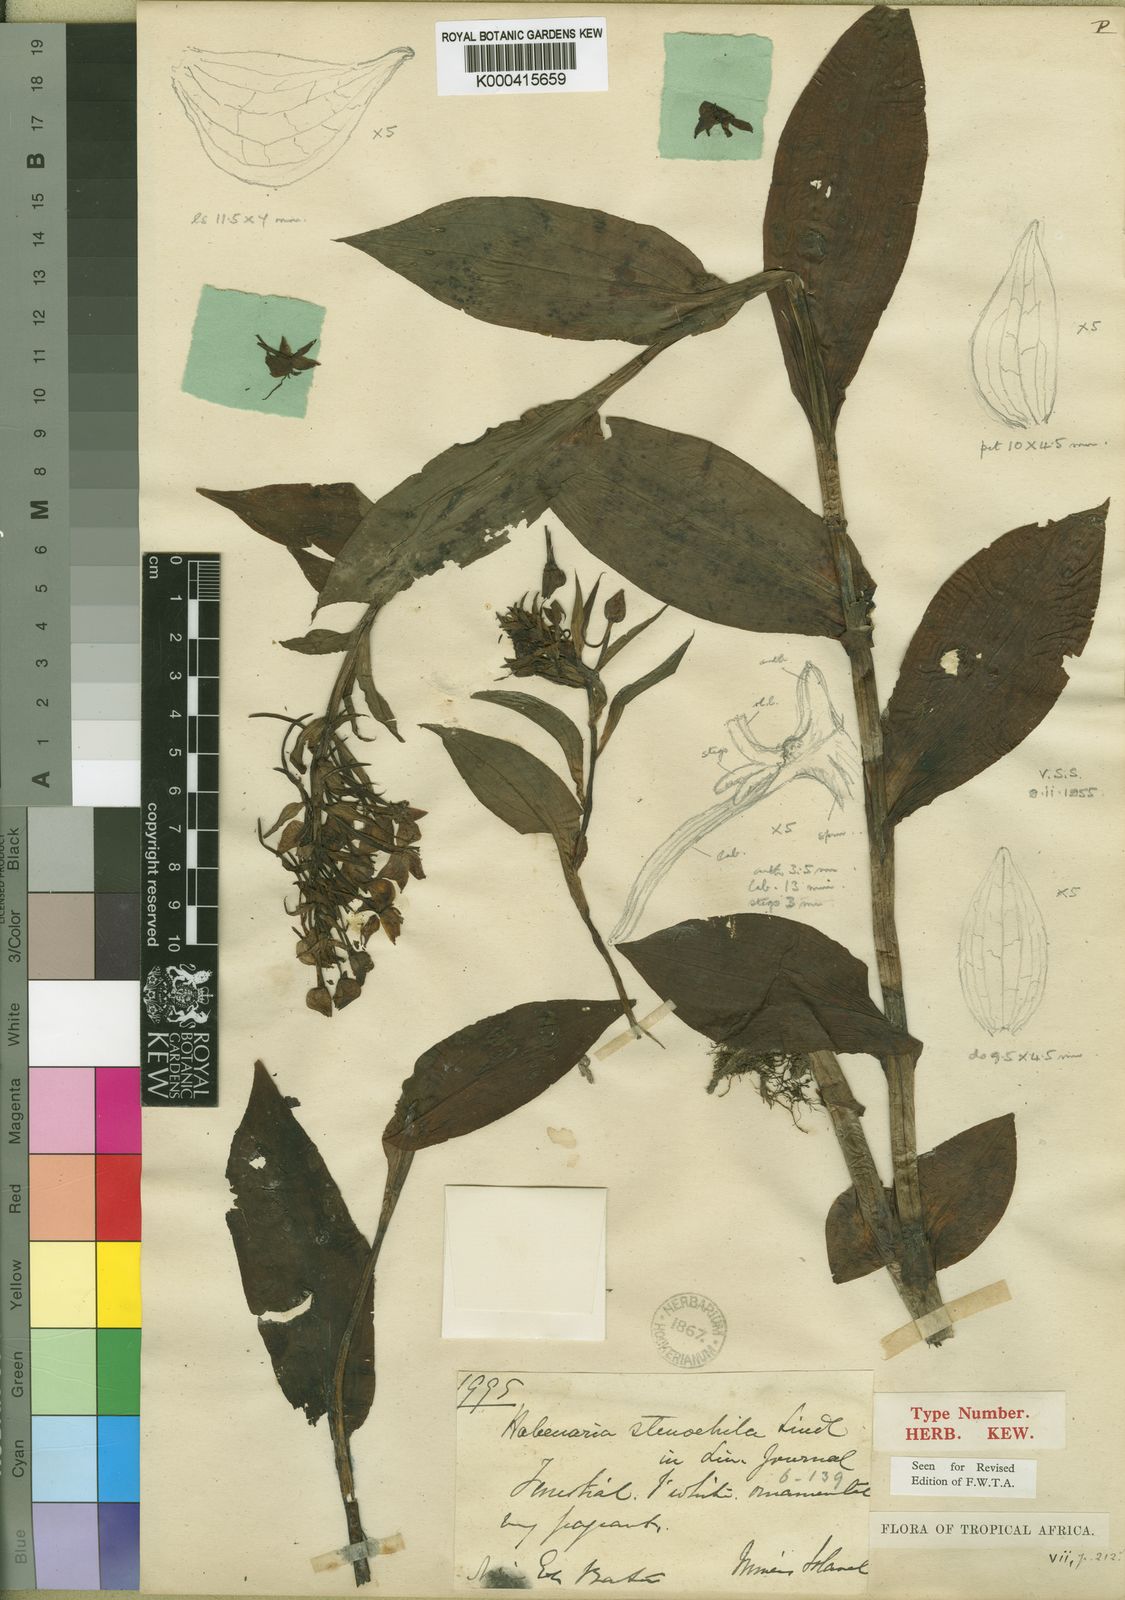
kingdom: Plantae
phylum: Tracheophyta
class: Liliopsida
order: Asparagales
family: Orchidaceae
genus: Habenaria
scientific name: Habenaria stenochila
